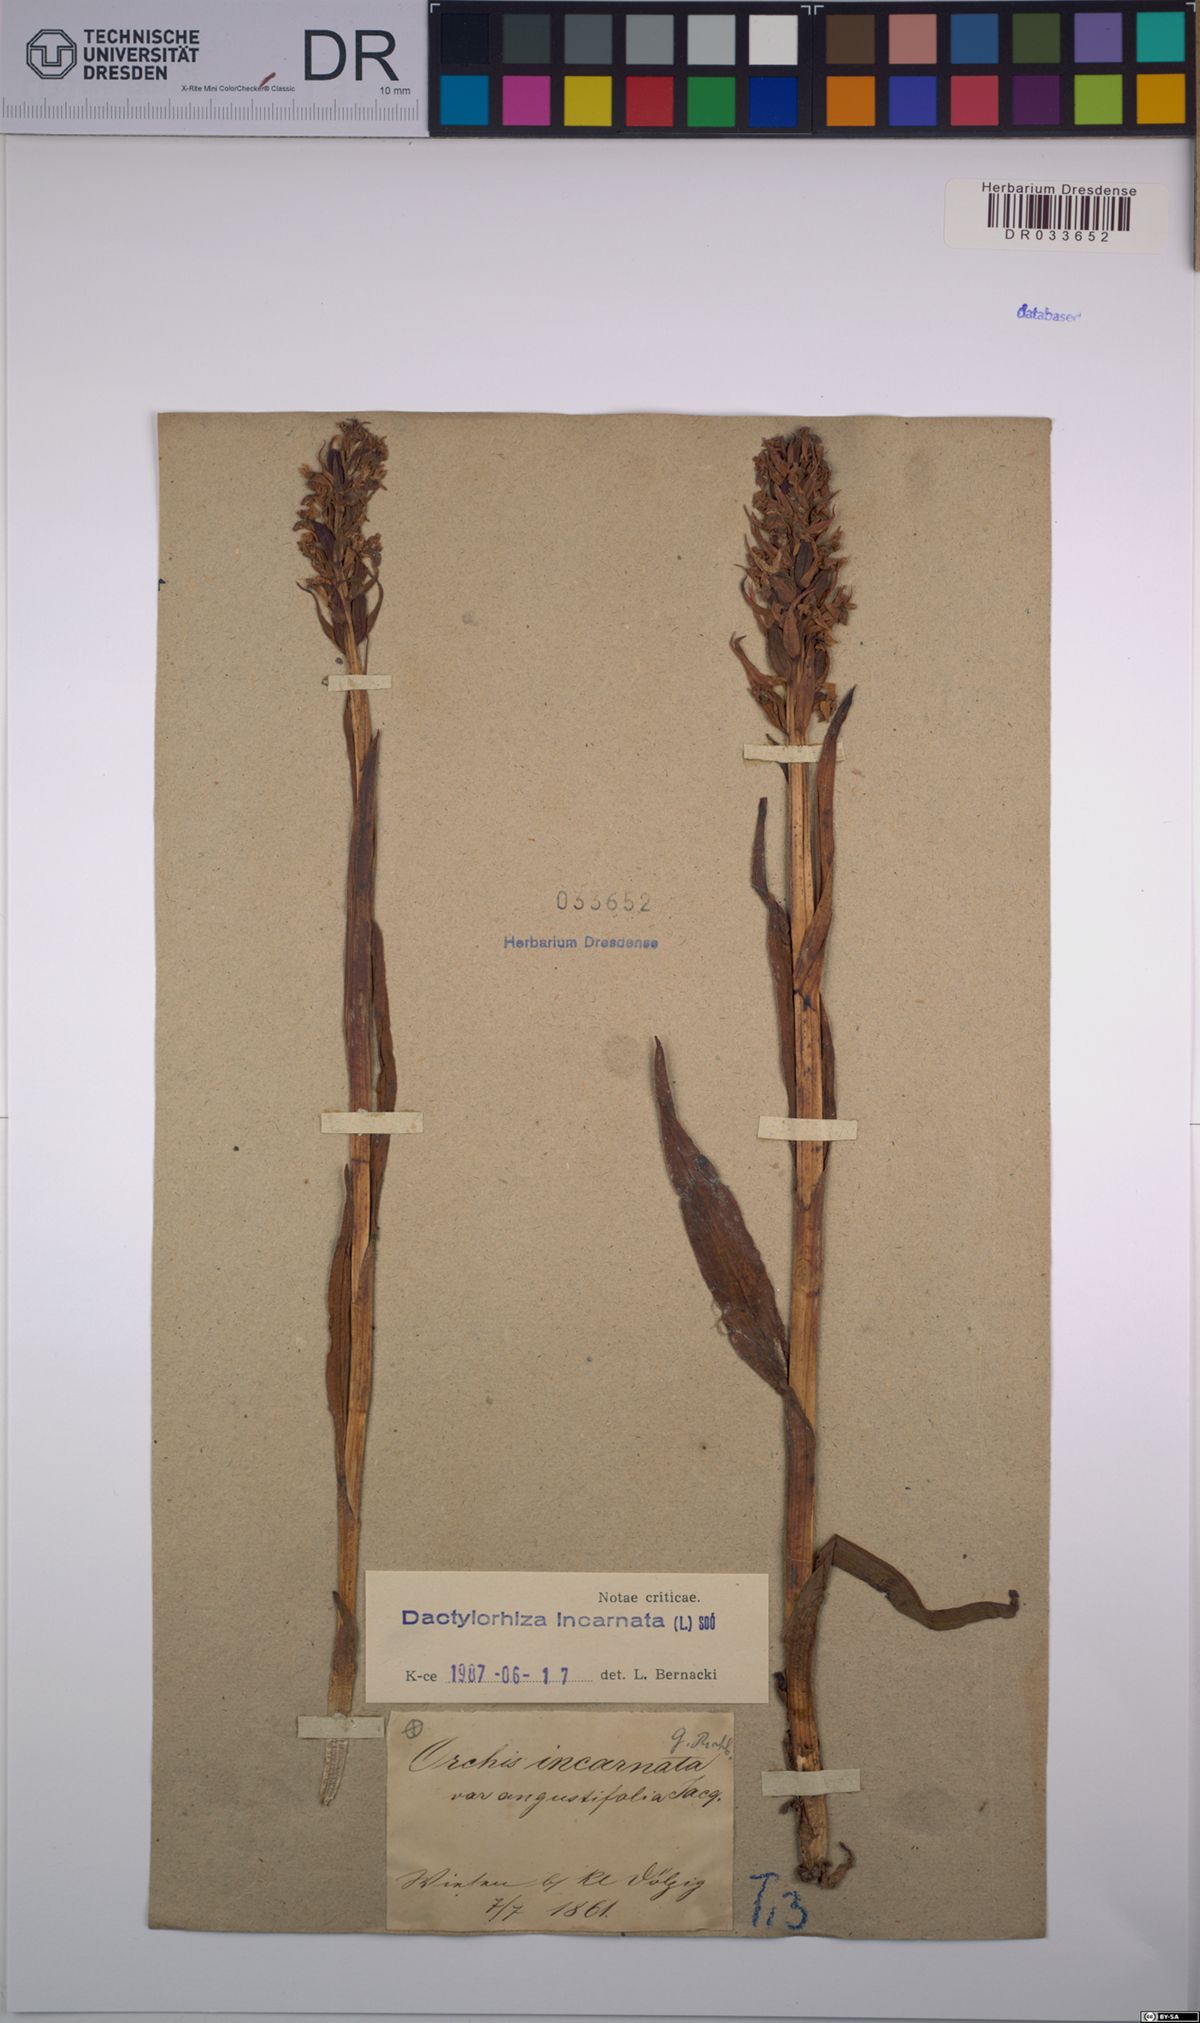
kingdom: Plantae
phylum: Tracheophyta
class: Liliopsida
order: Asparagales
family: Orchidaceae
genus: Dactylorhiza
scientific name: Dactylorhiza incarnata
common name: Early marsh-orchid
